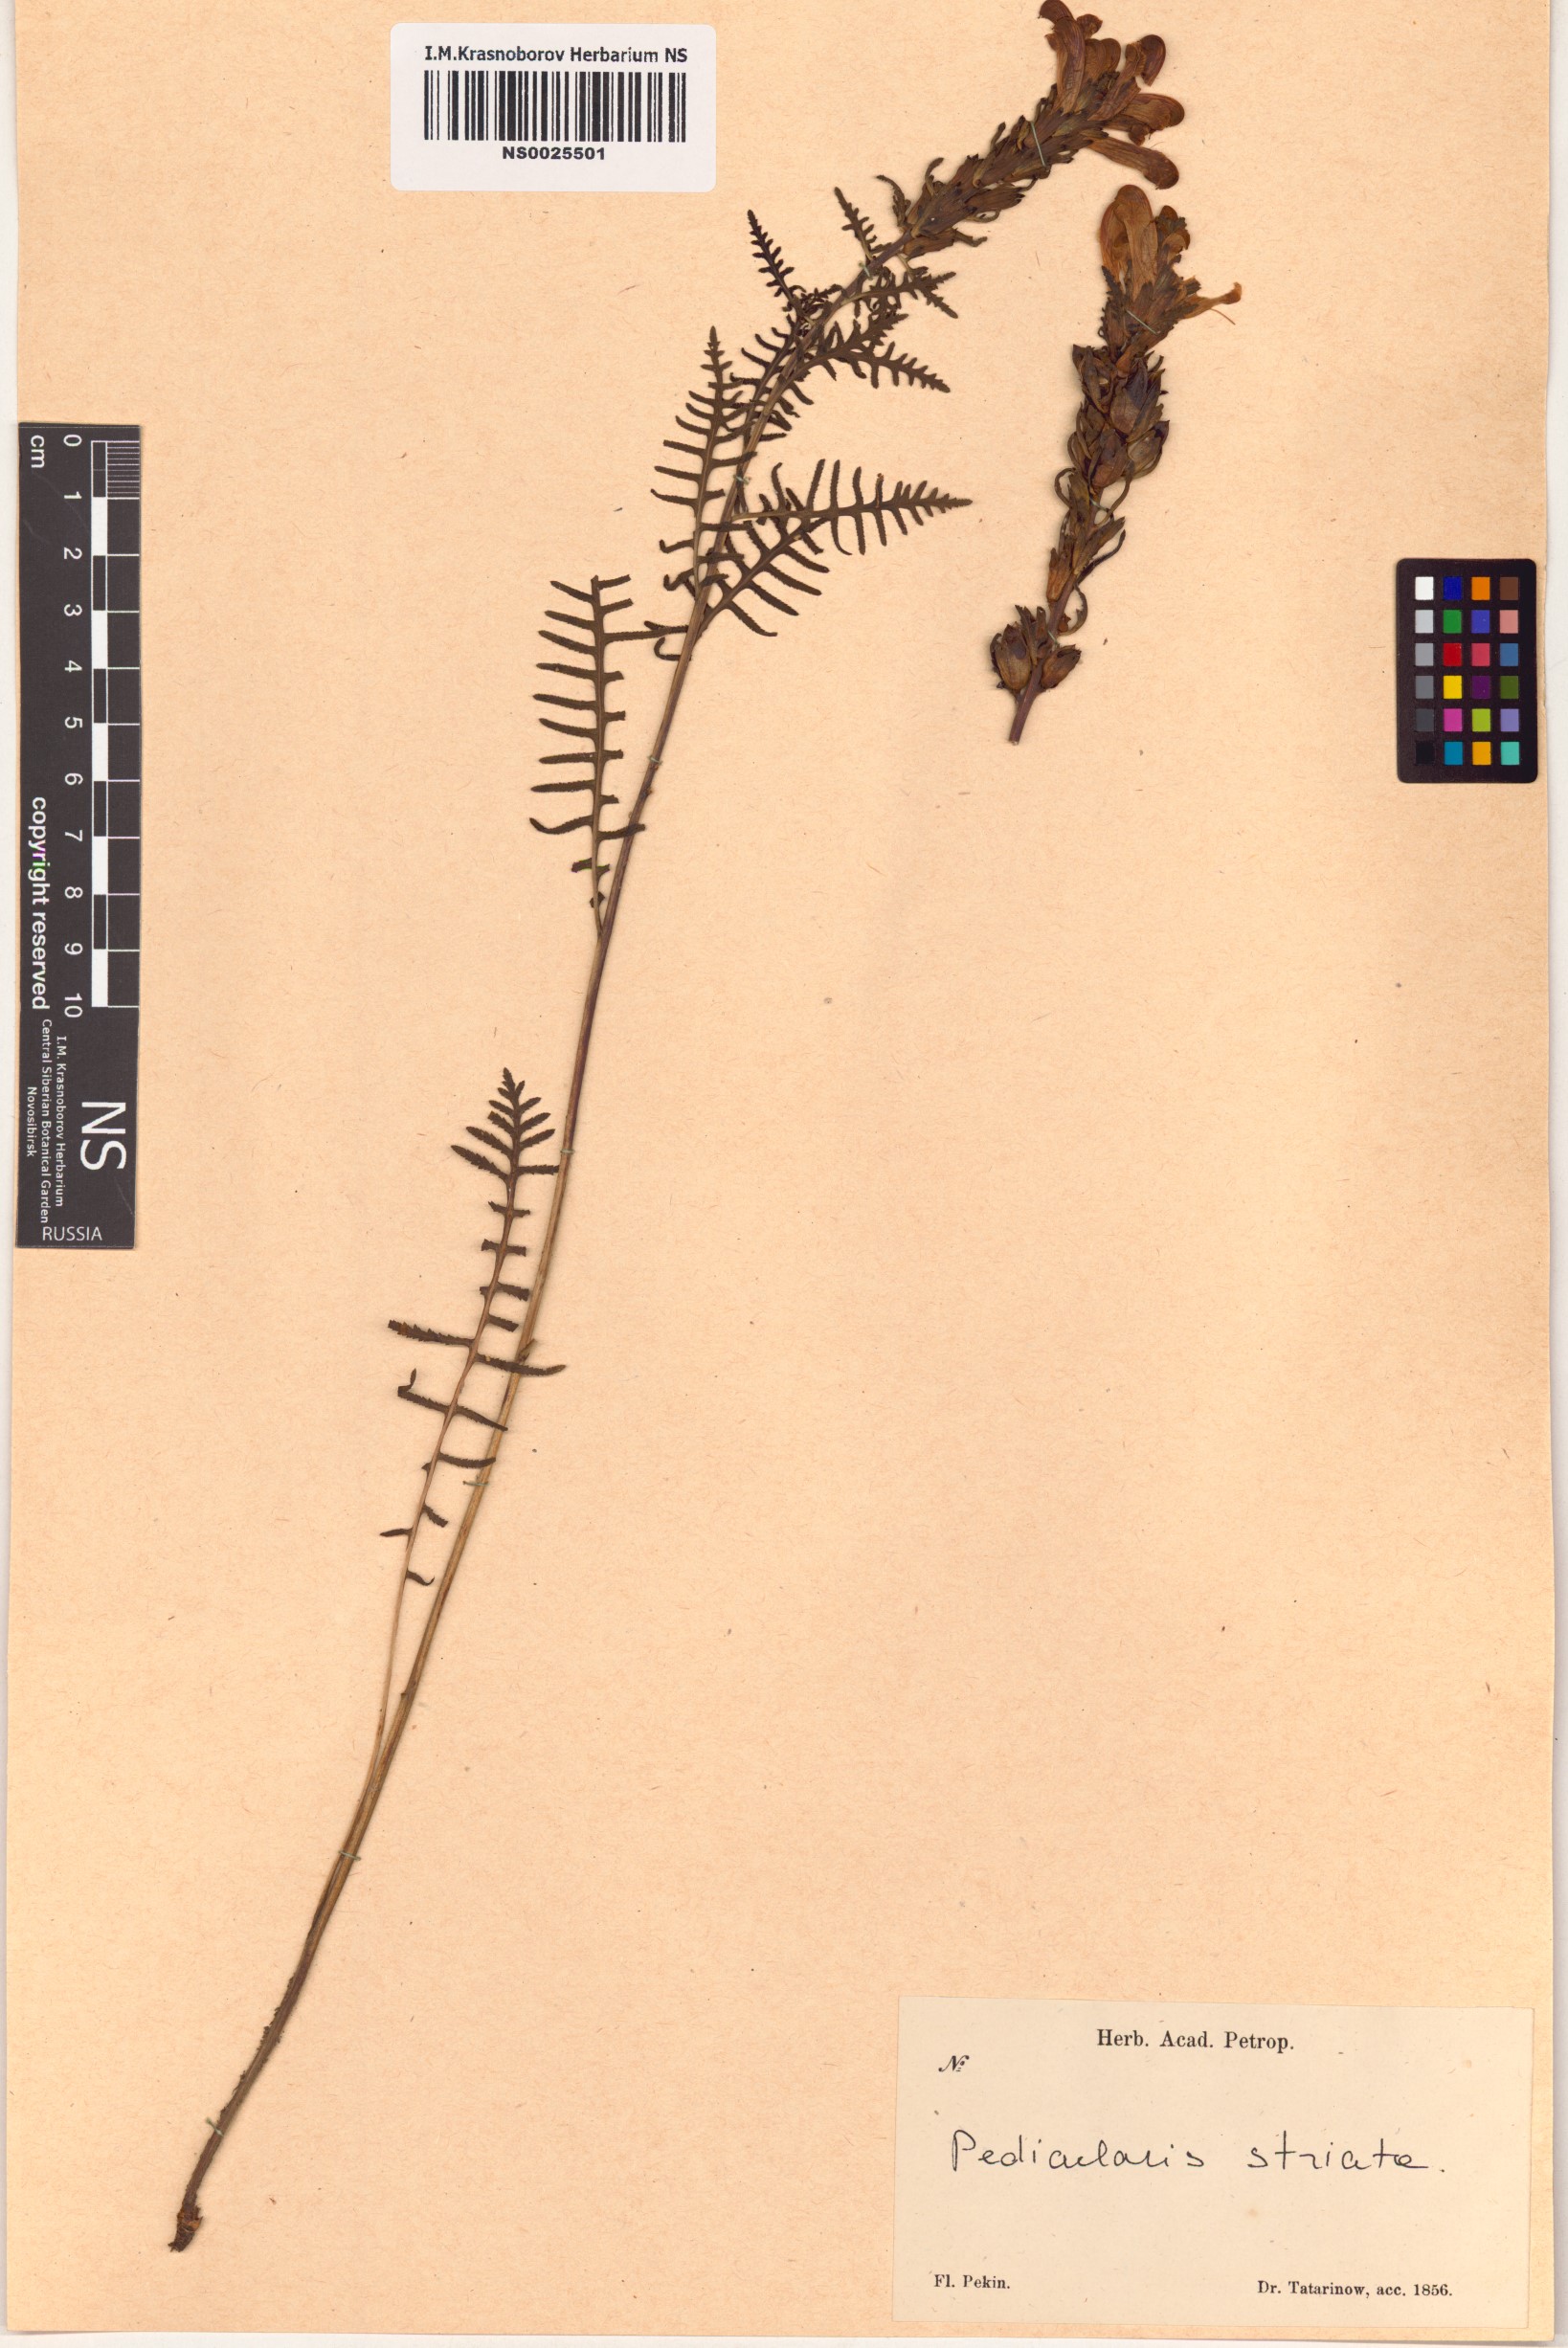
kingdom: Plantae
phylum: Tracheophyta
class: Magnoliopsida
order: Lamiales
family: Orobanchaceae
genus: Pedicularis
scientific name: Pedicularis striata
